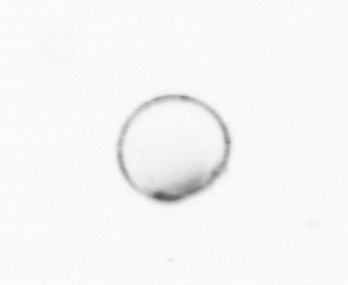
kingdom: Chromista
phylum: Myzozoa
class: Dinophyceae
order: Noctilucales
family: Noctilucaceae
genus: Noctiluca
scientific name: Noctiluca scintillans
